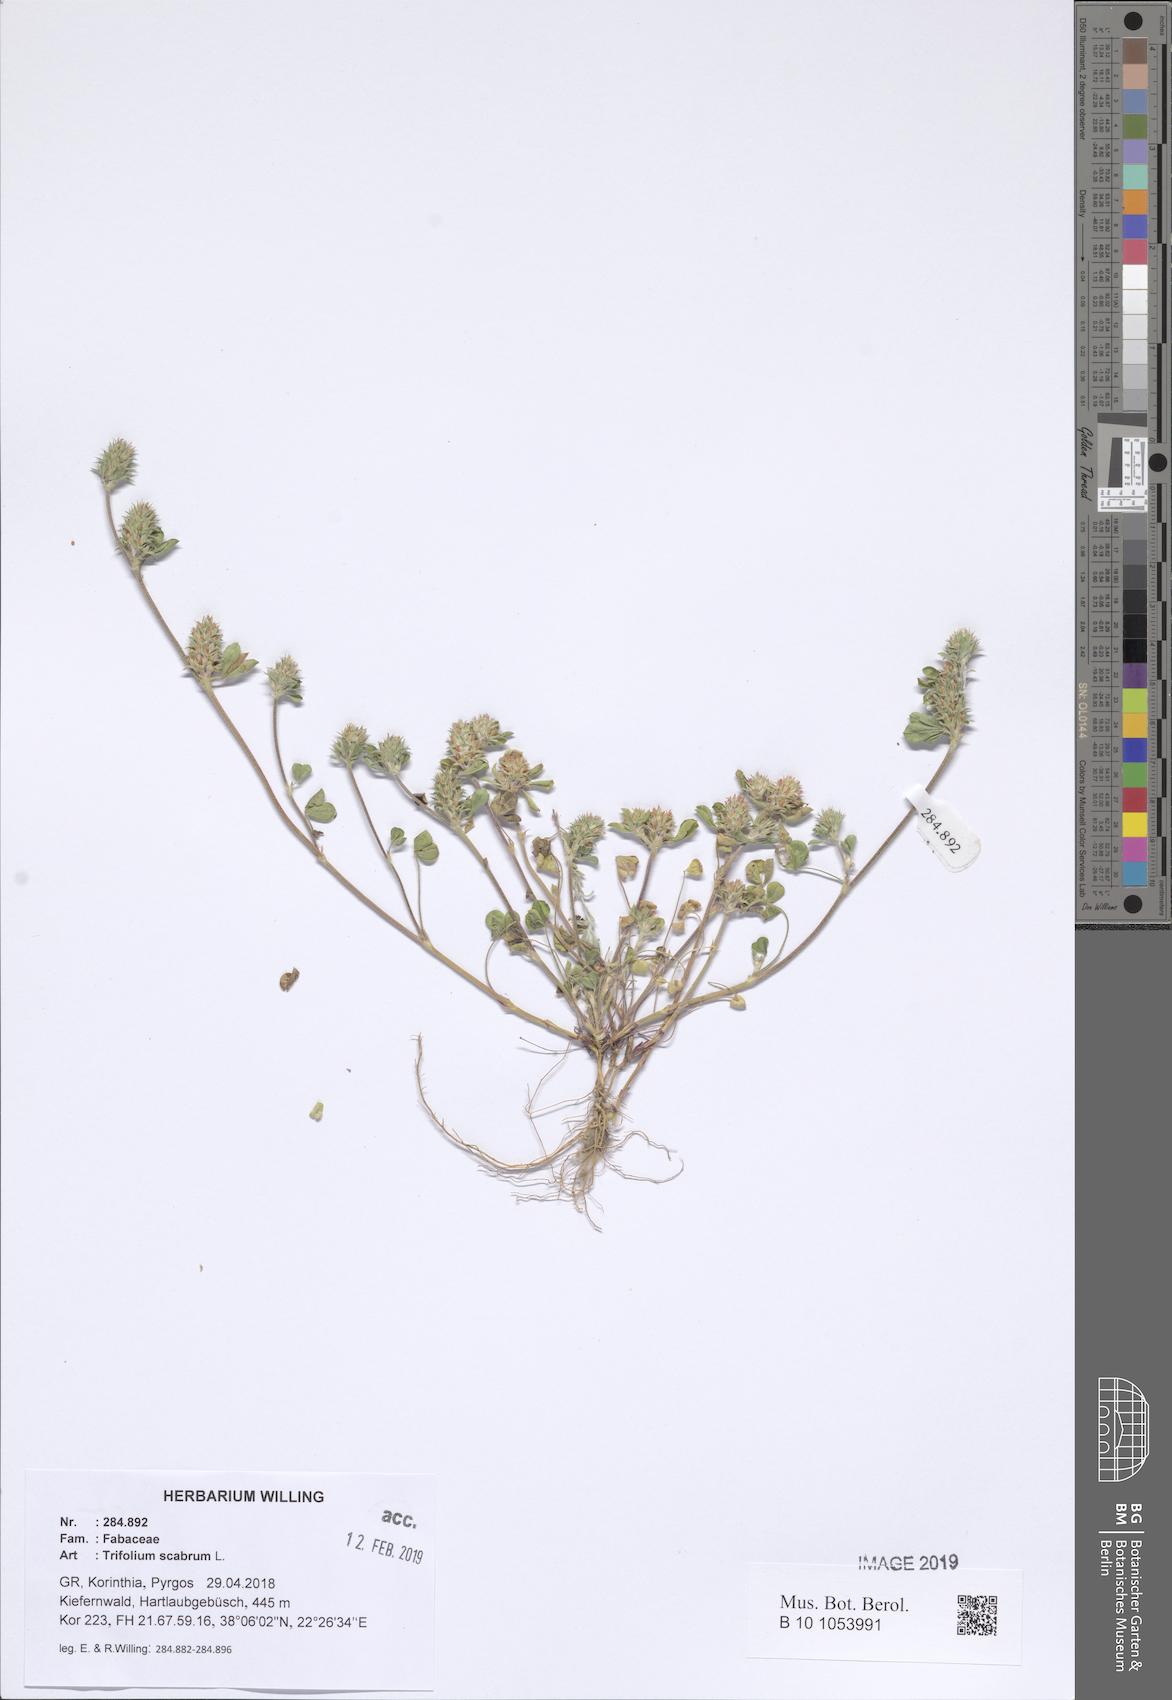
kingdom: Plantae
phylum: Tracheophyta
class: Magnoliopsida
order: Fabales
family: Fabaceae
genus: Trifolium
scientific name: Trifolium scabrum
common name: Rough clover
